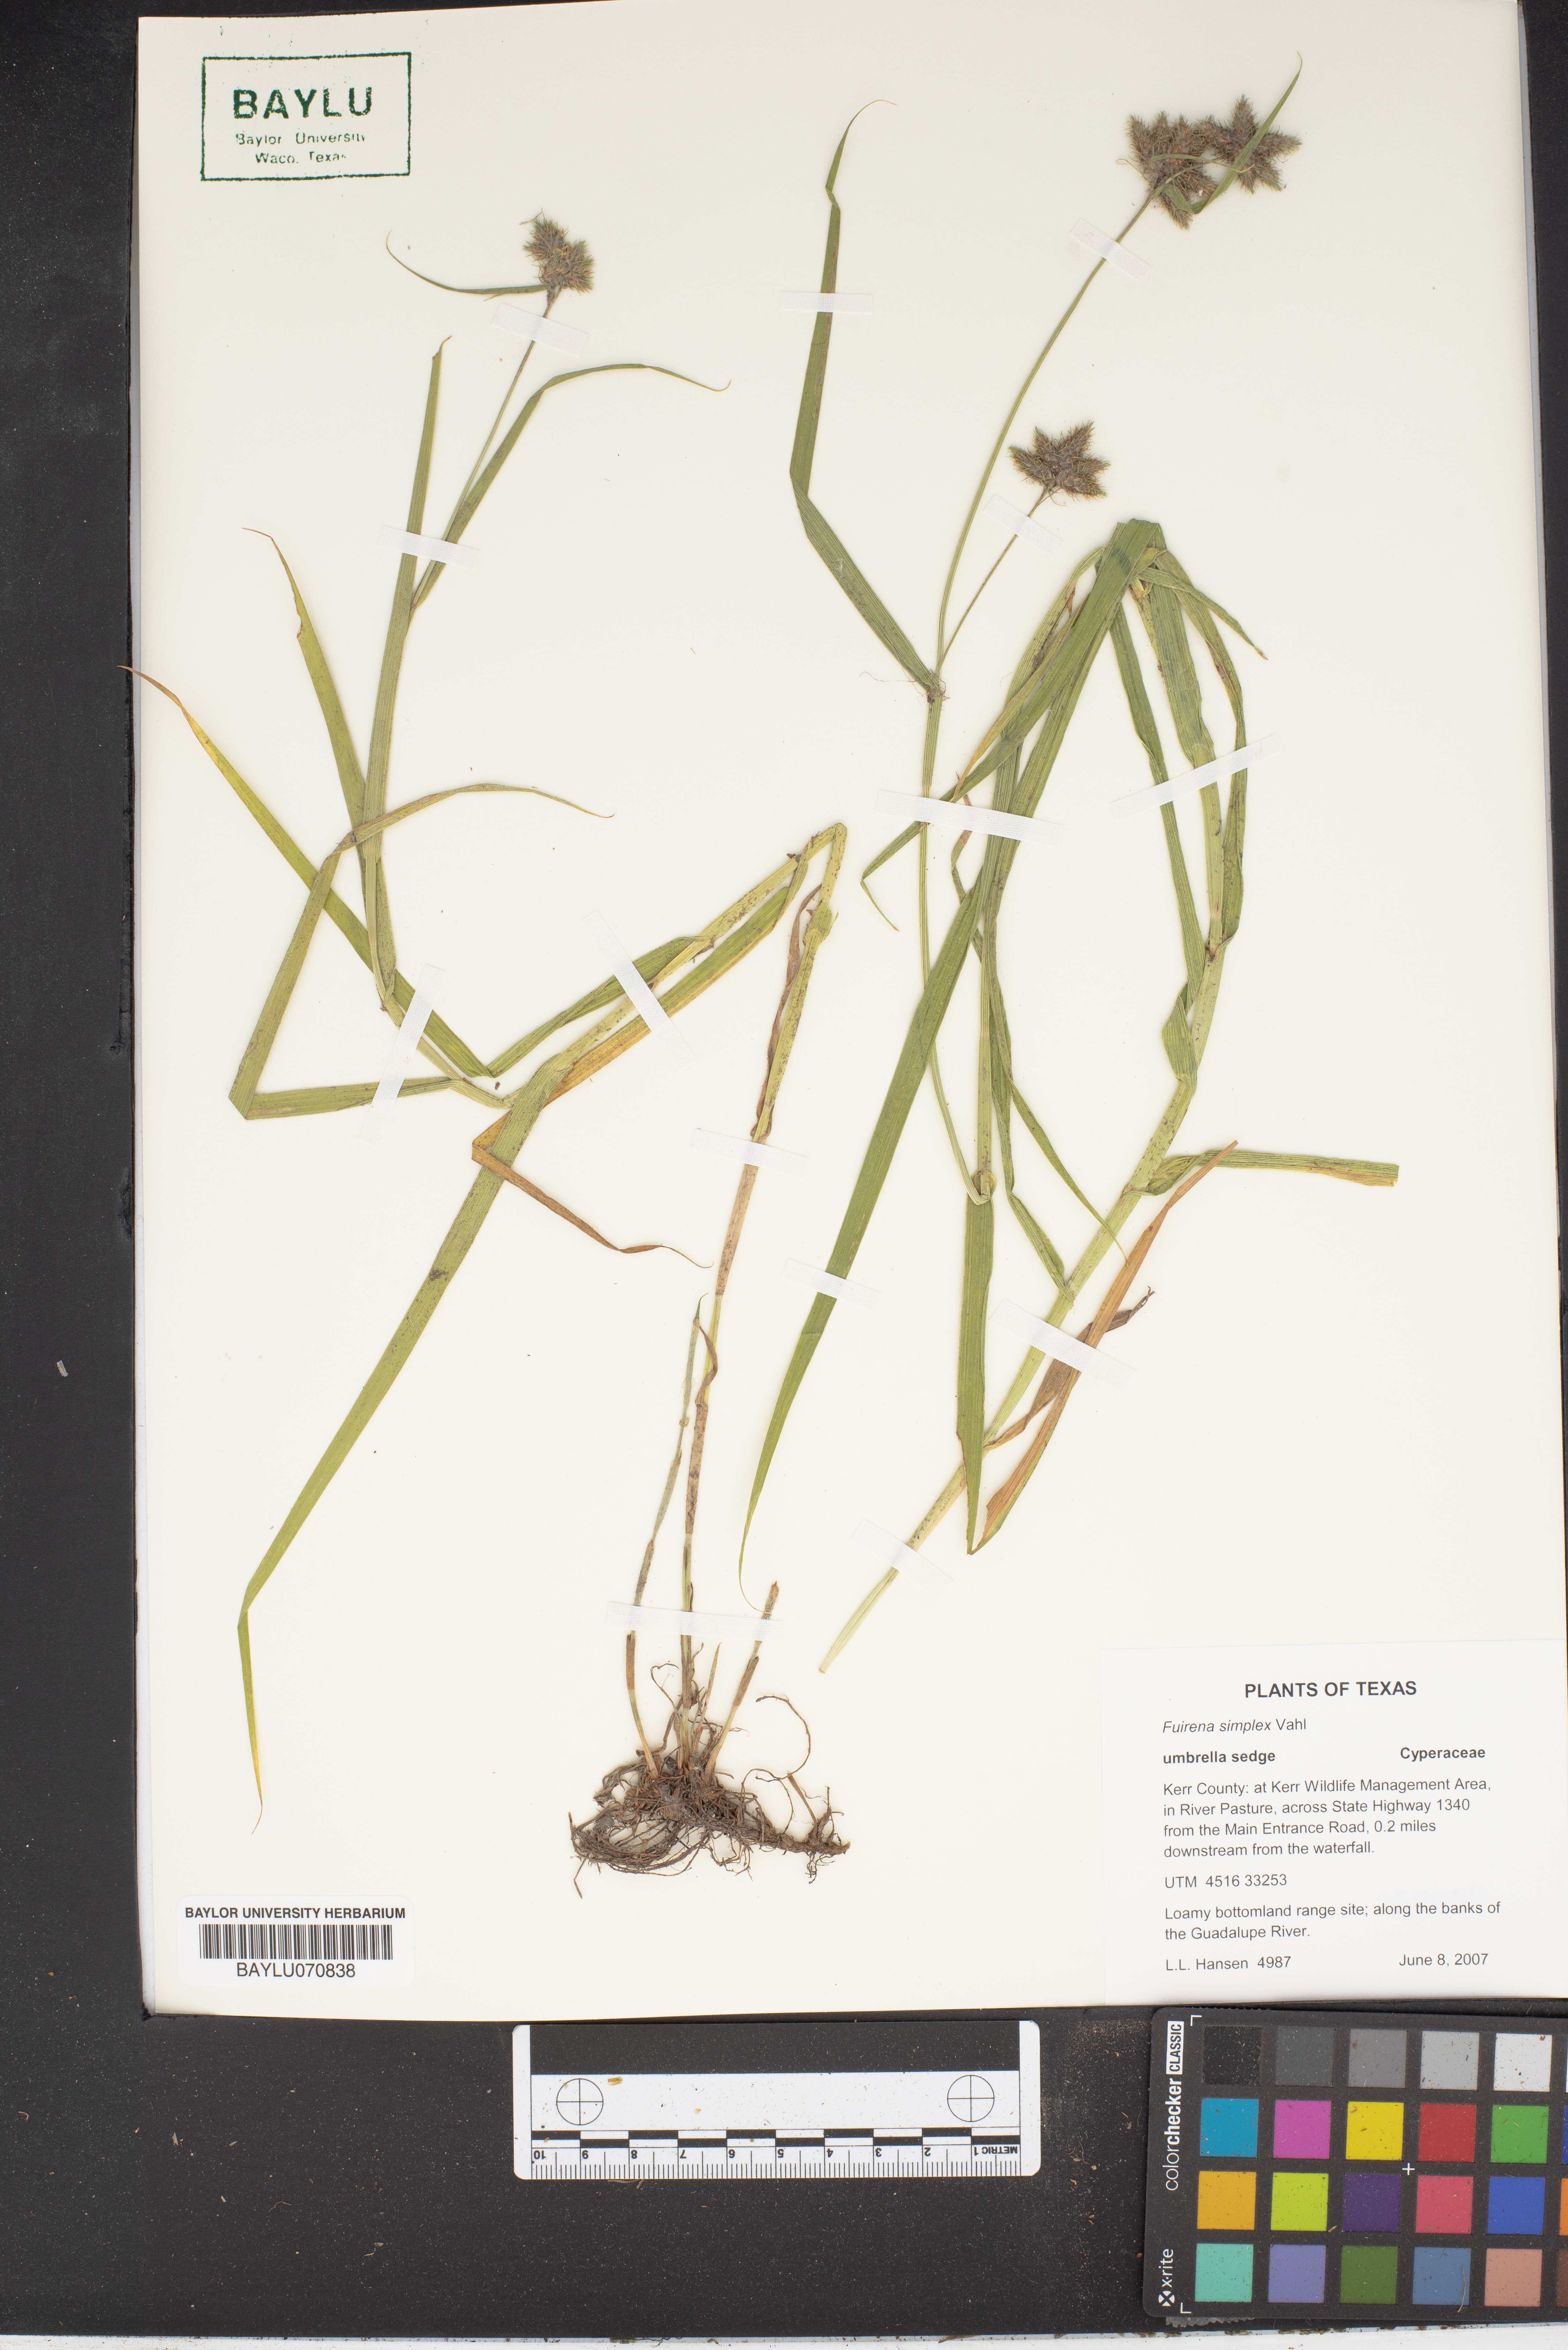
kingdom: Plantae
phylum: Tracheophyta
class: Liliopsida
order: Poales
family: Cyperaceae
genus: Fuirena
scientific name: Fuirena simplex
